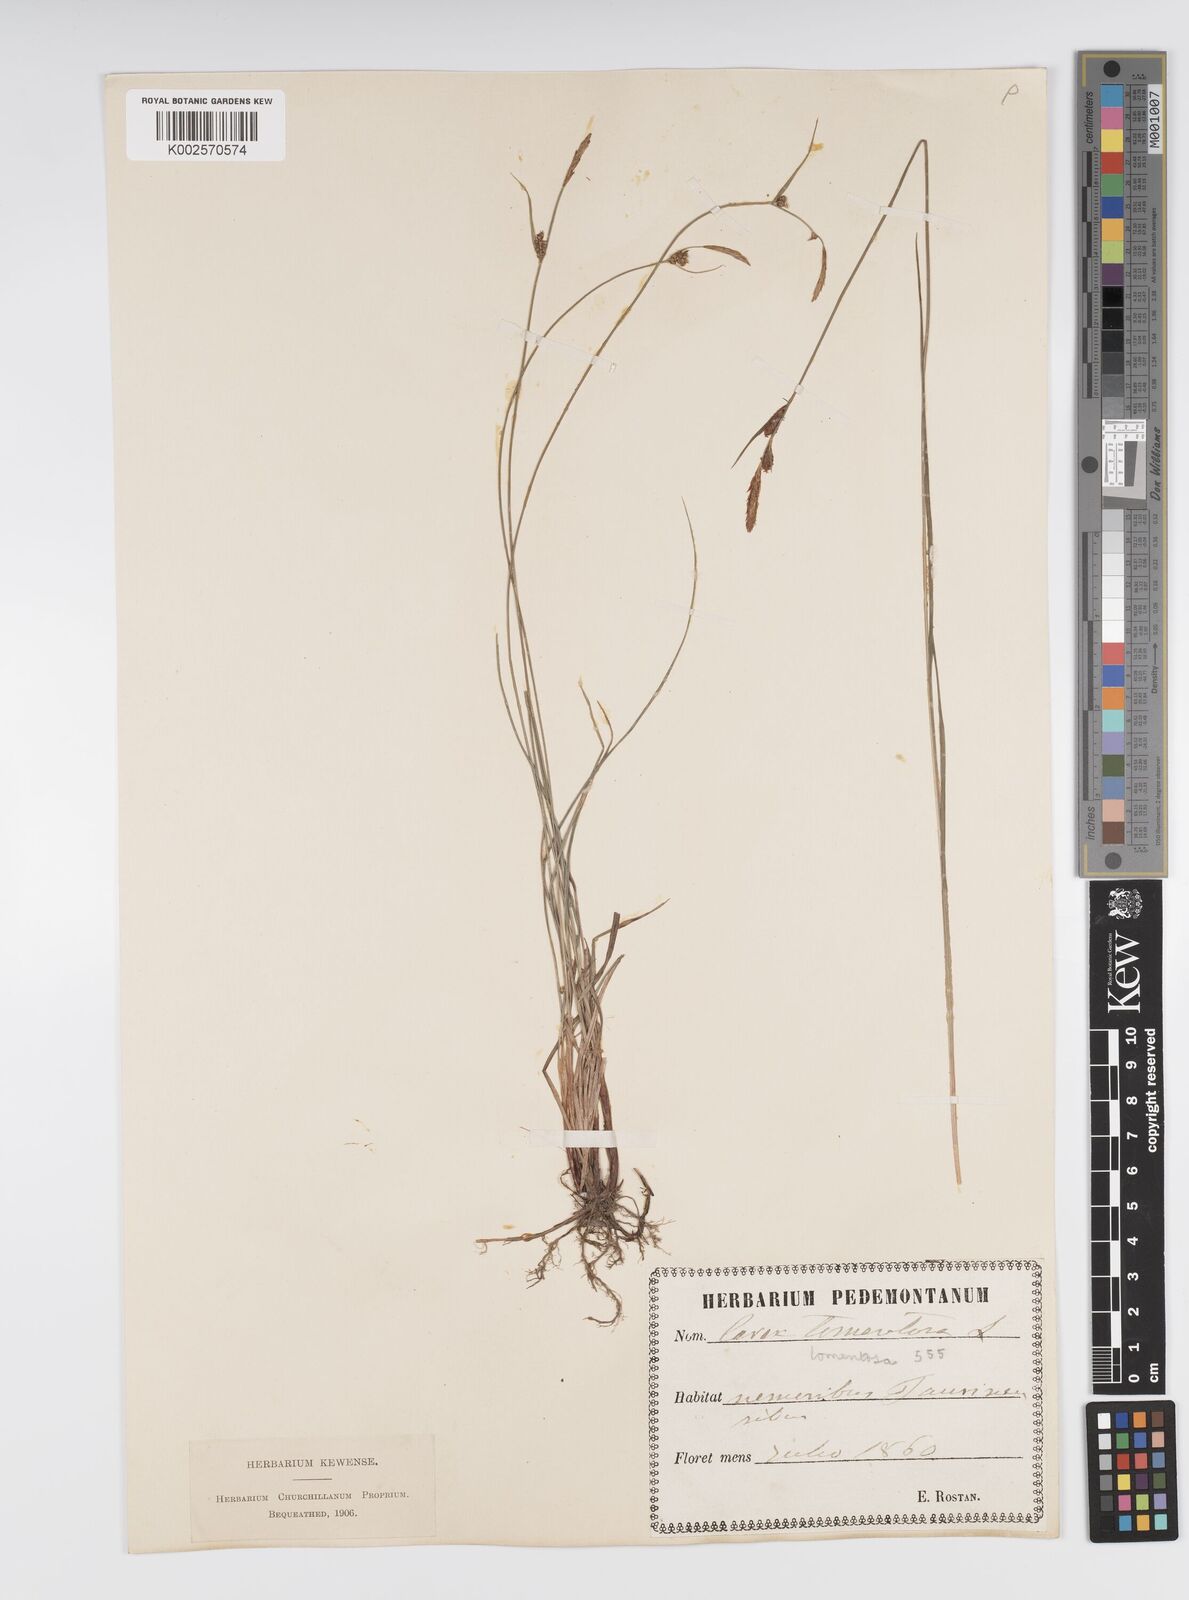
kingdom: Plantae
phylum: Tracheophyta
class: Liliopsida
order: Poales
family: Cyperaceae
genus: Carex
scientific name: Carex montana
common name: Soft-leaved sedge
